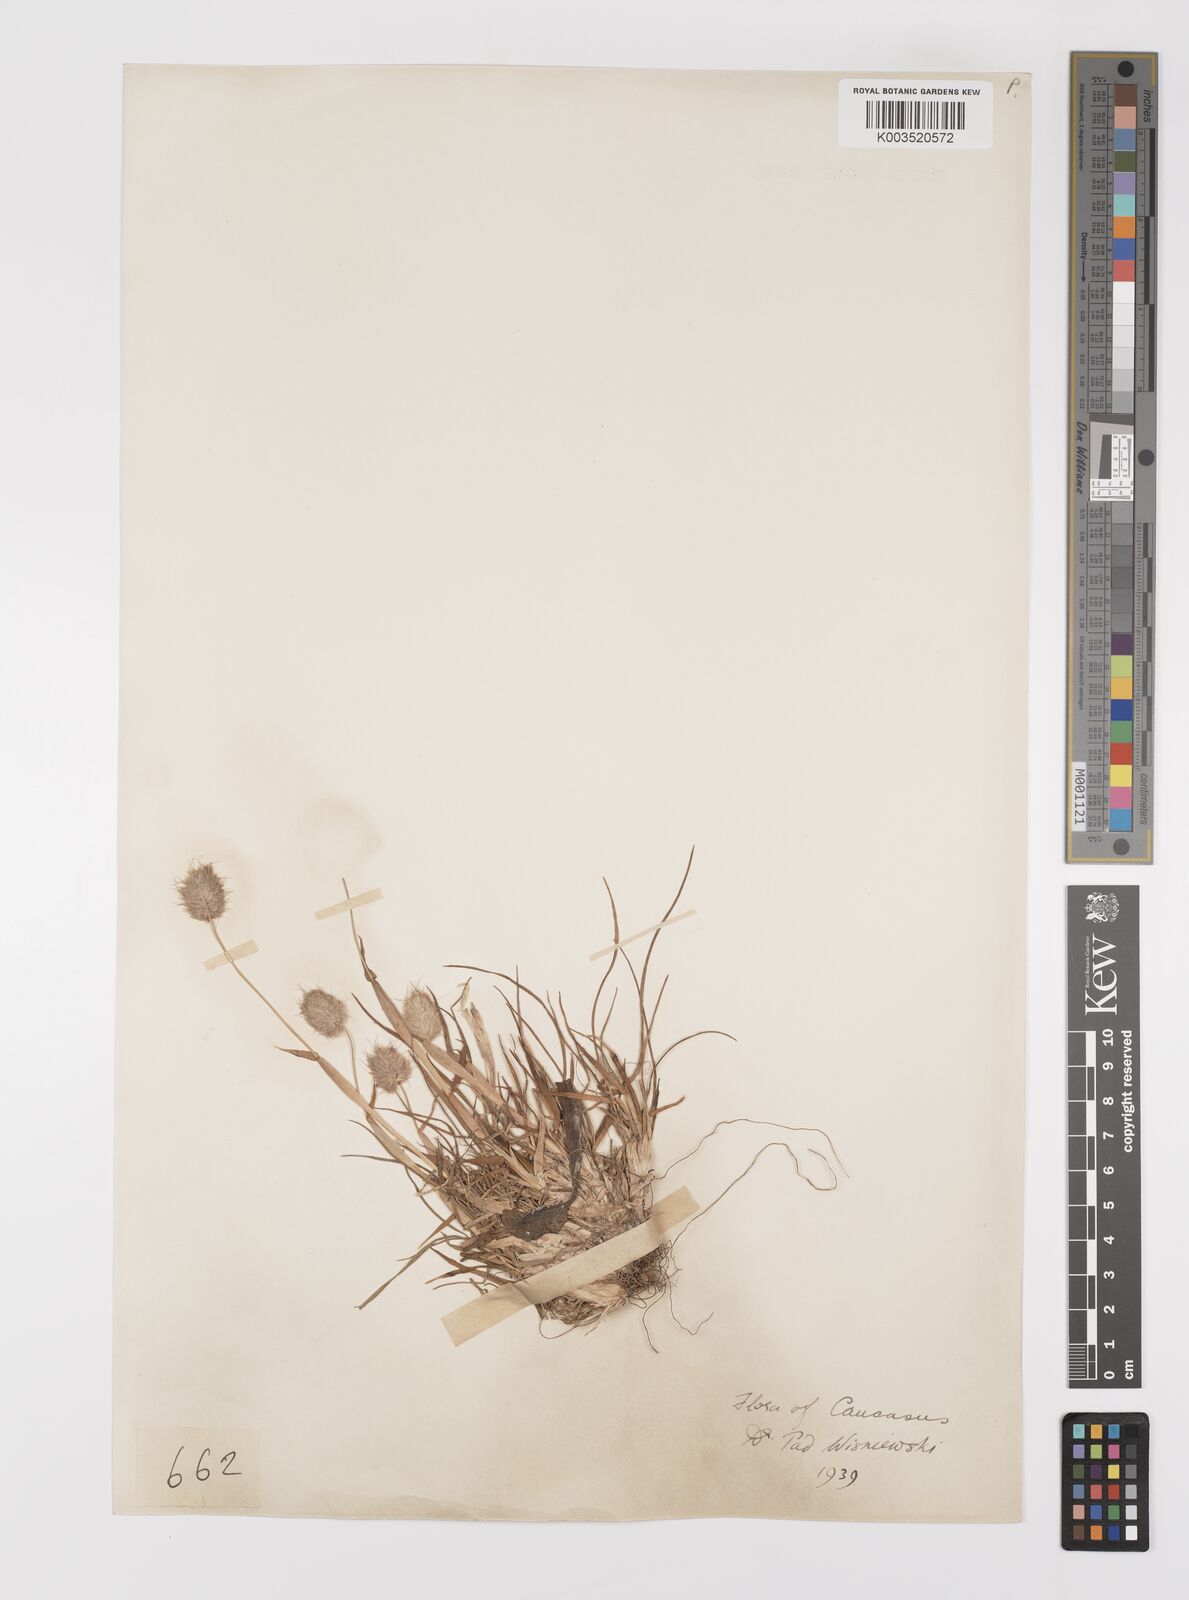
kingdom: Plantae
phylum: Tracheophyta
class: Liliopsida
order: Poales
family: Poaceae
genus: Alopecurus
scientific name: Alopecurus textilis
